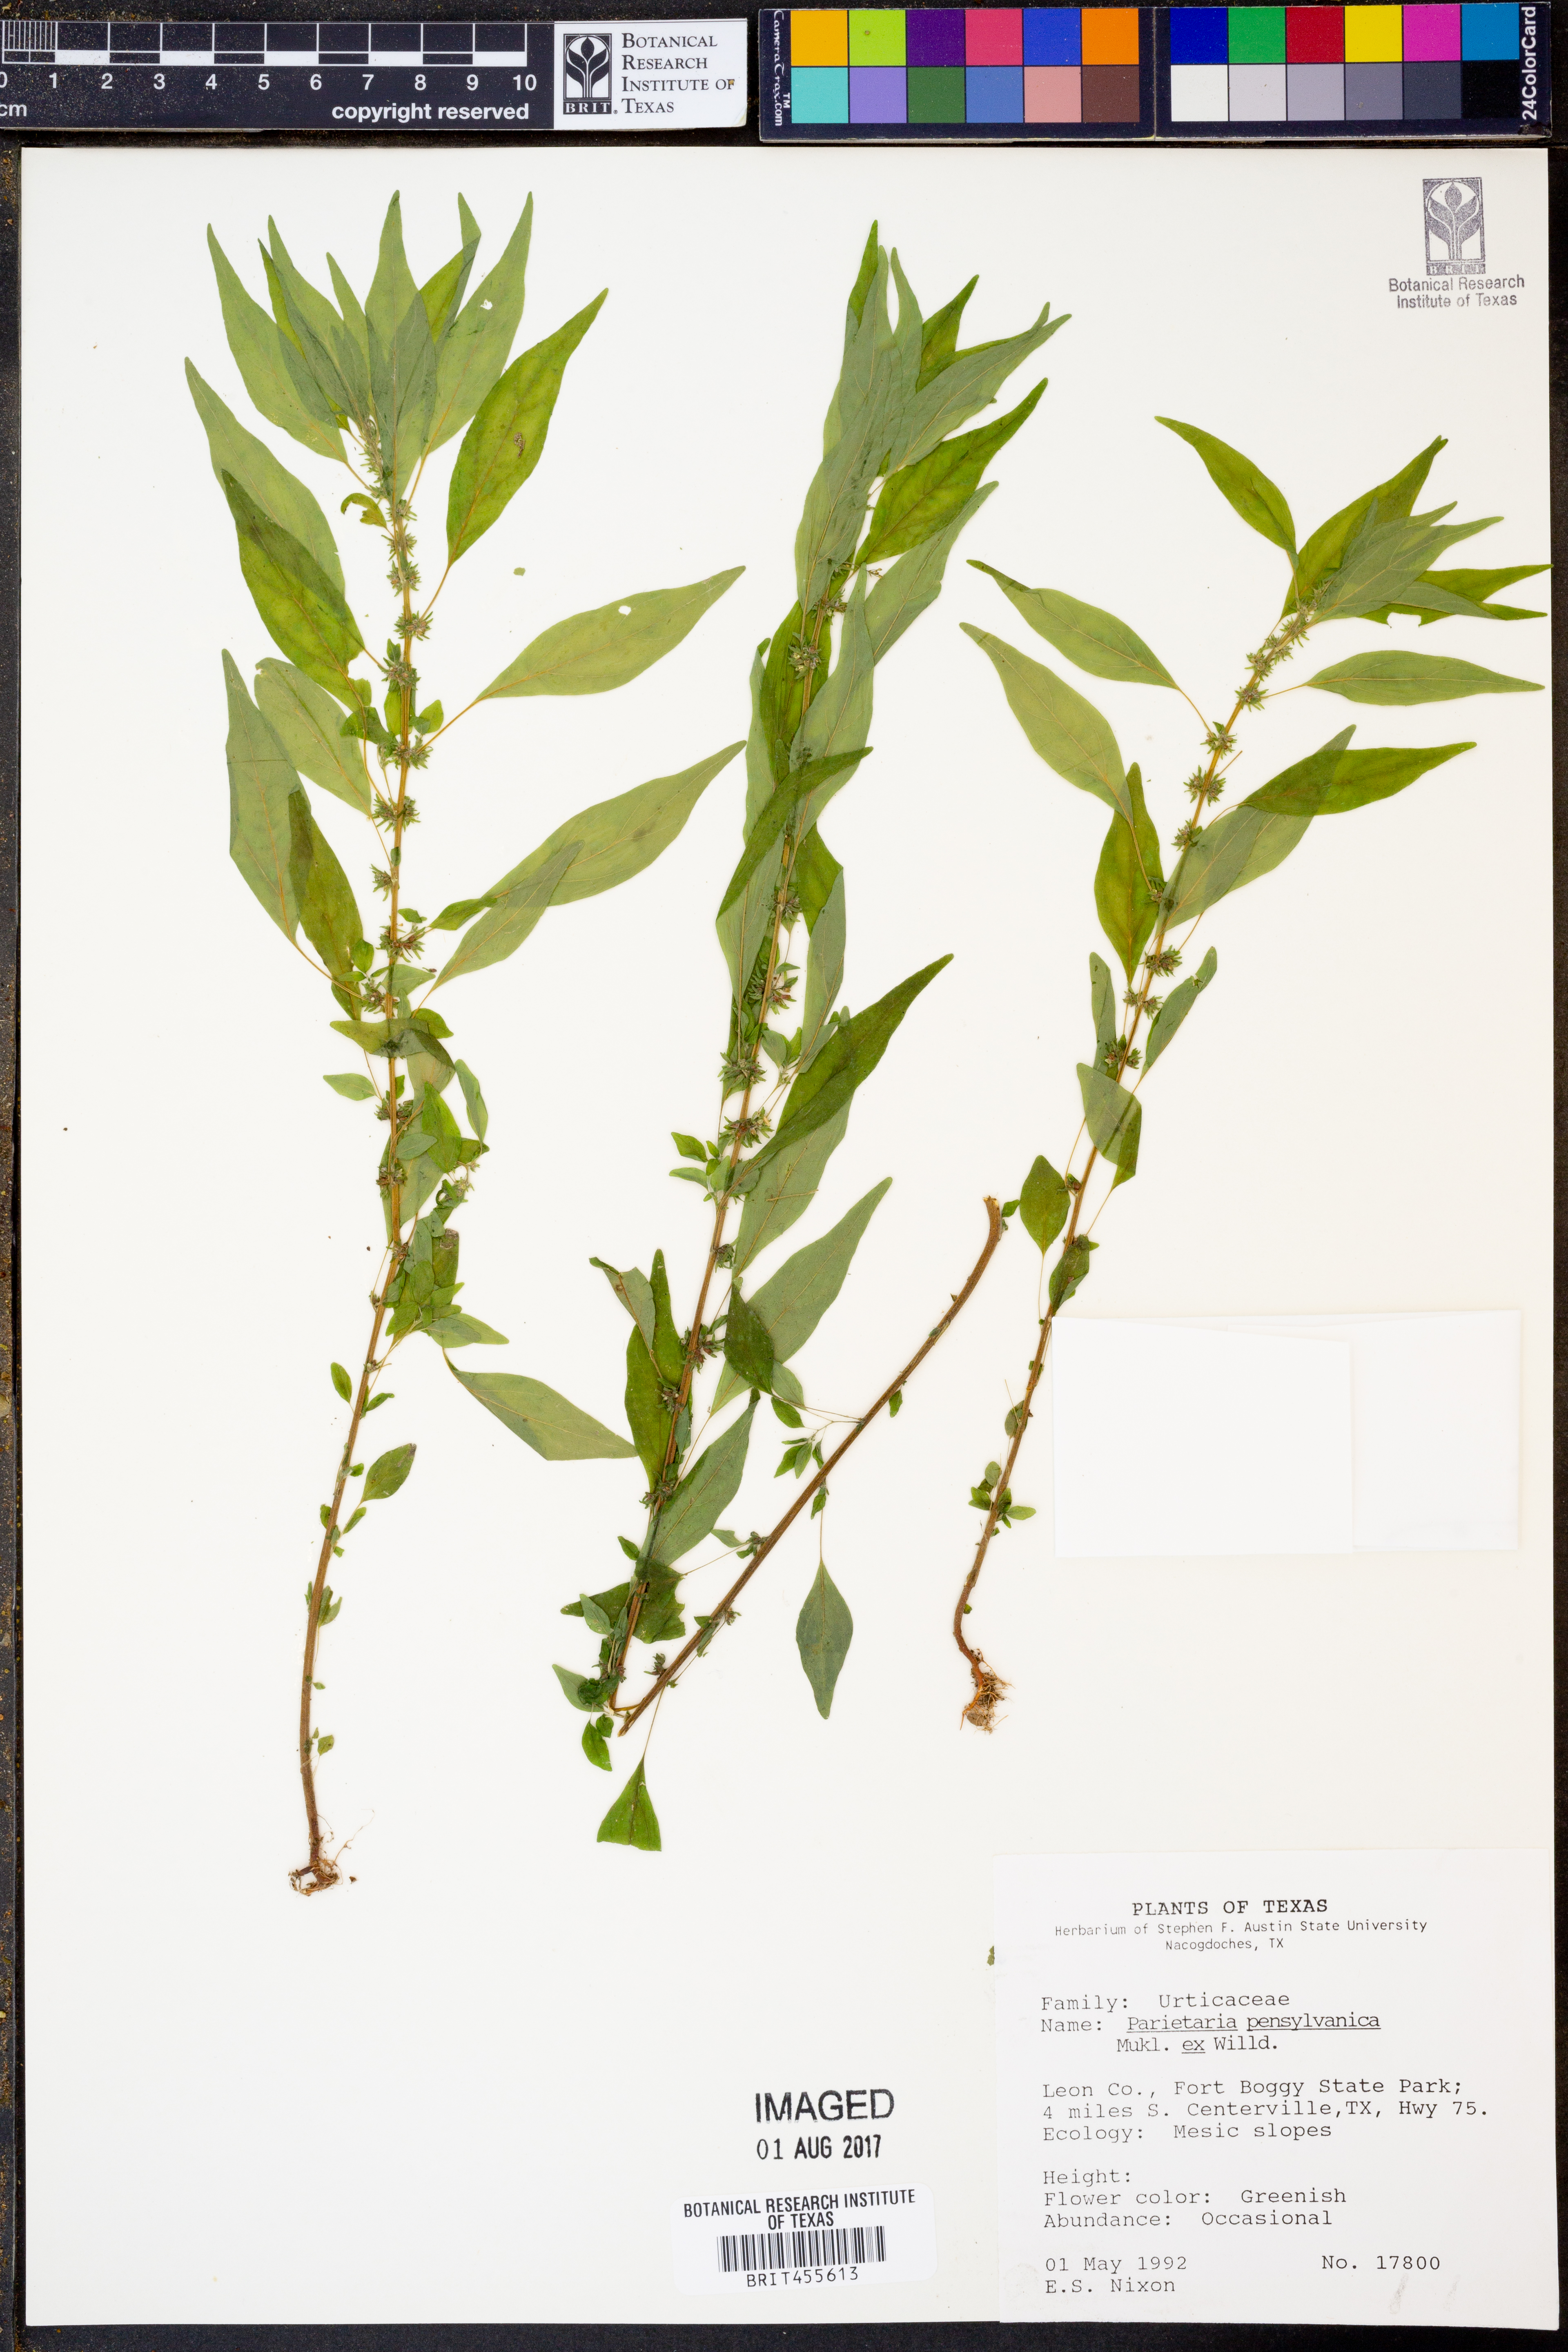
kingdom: Plantae
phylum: Tracheophyta
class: Magnoliopsida
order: Rosales
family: Urticaceae
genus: Parietaria
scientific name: Parietaria pensylvanica
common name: Pennsylvania pellitory
